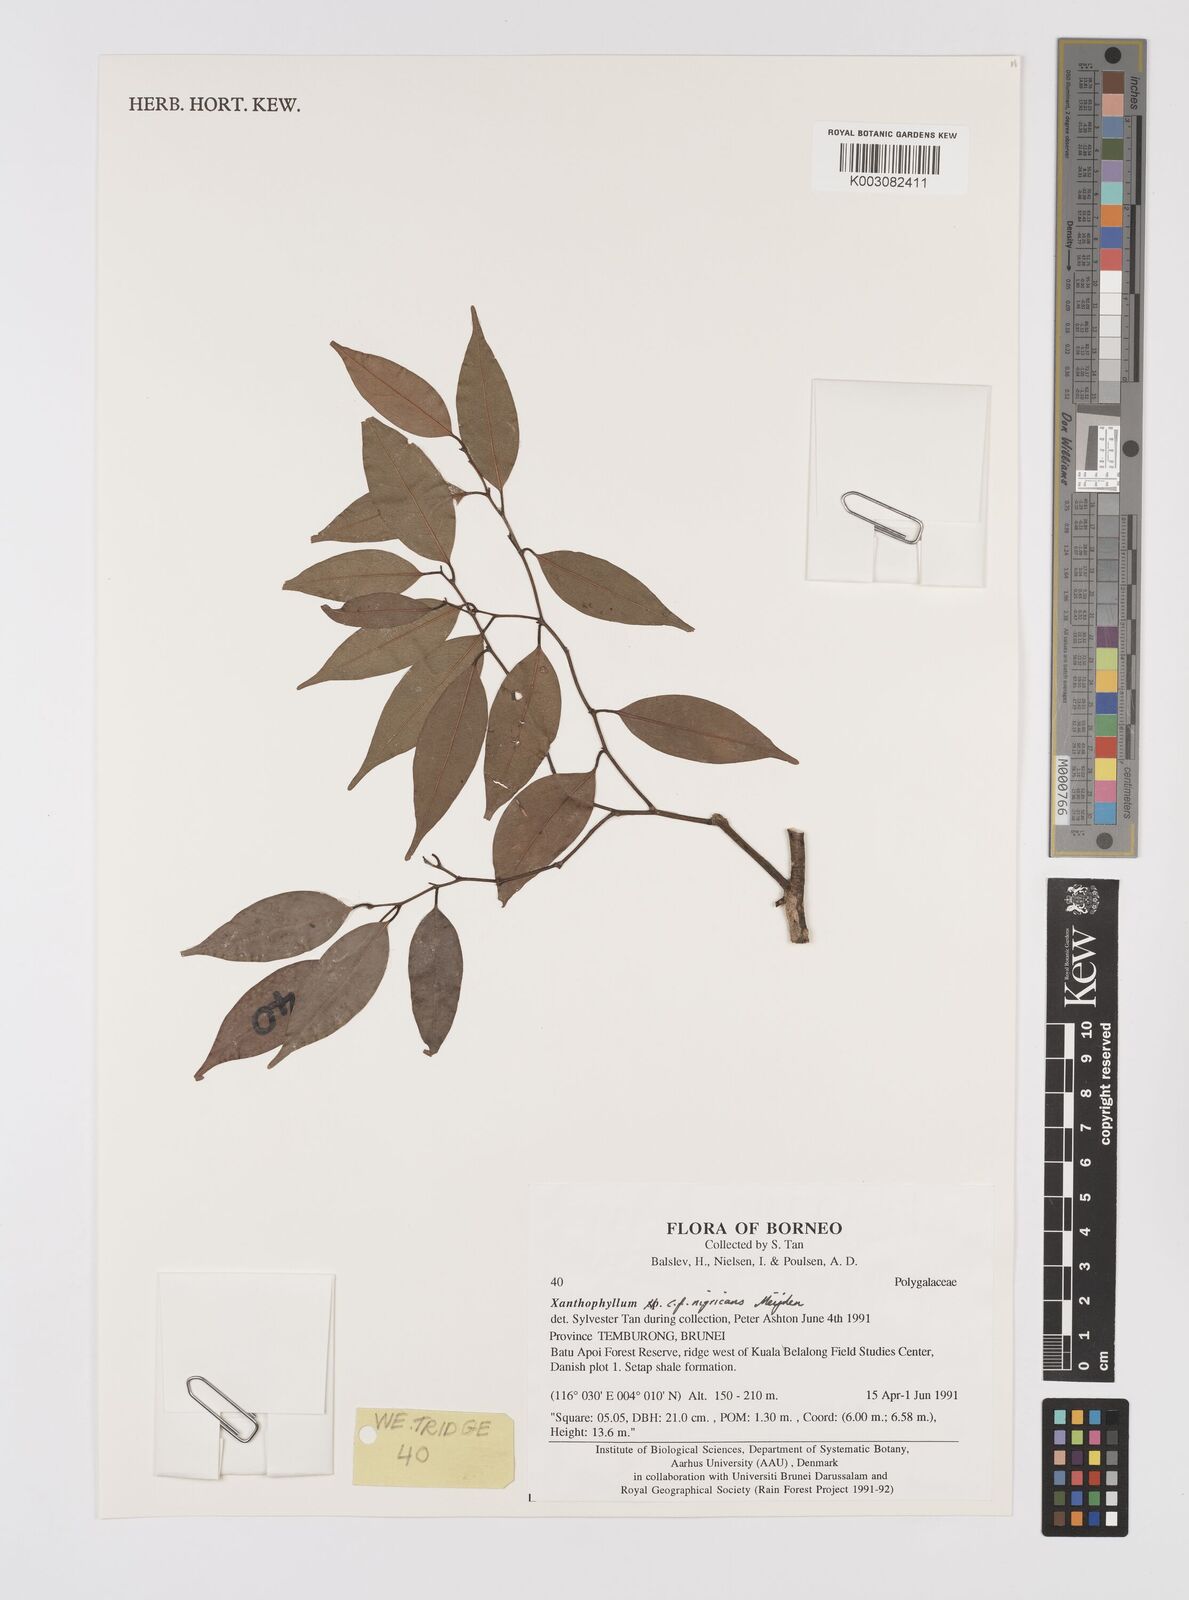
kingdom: Plantae
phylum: Tracheophyta
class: Magnoliopsida
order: Fabales
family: Polygalaceae
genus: Xanthophyllum
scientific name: Xanthophyllum nigricans
